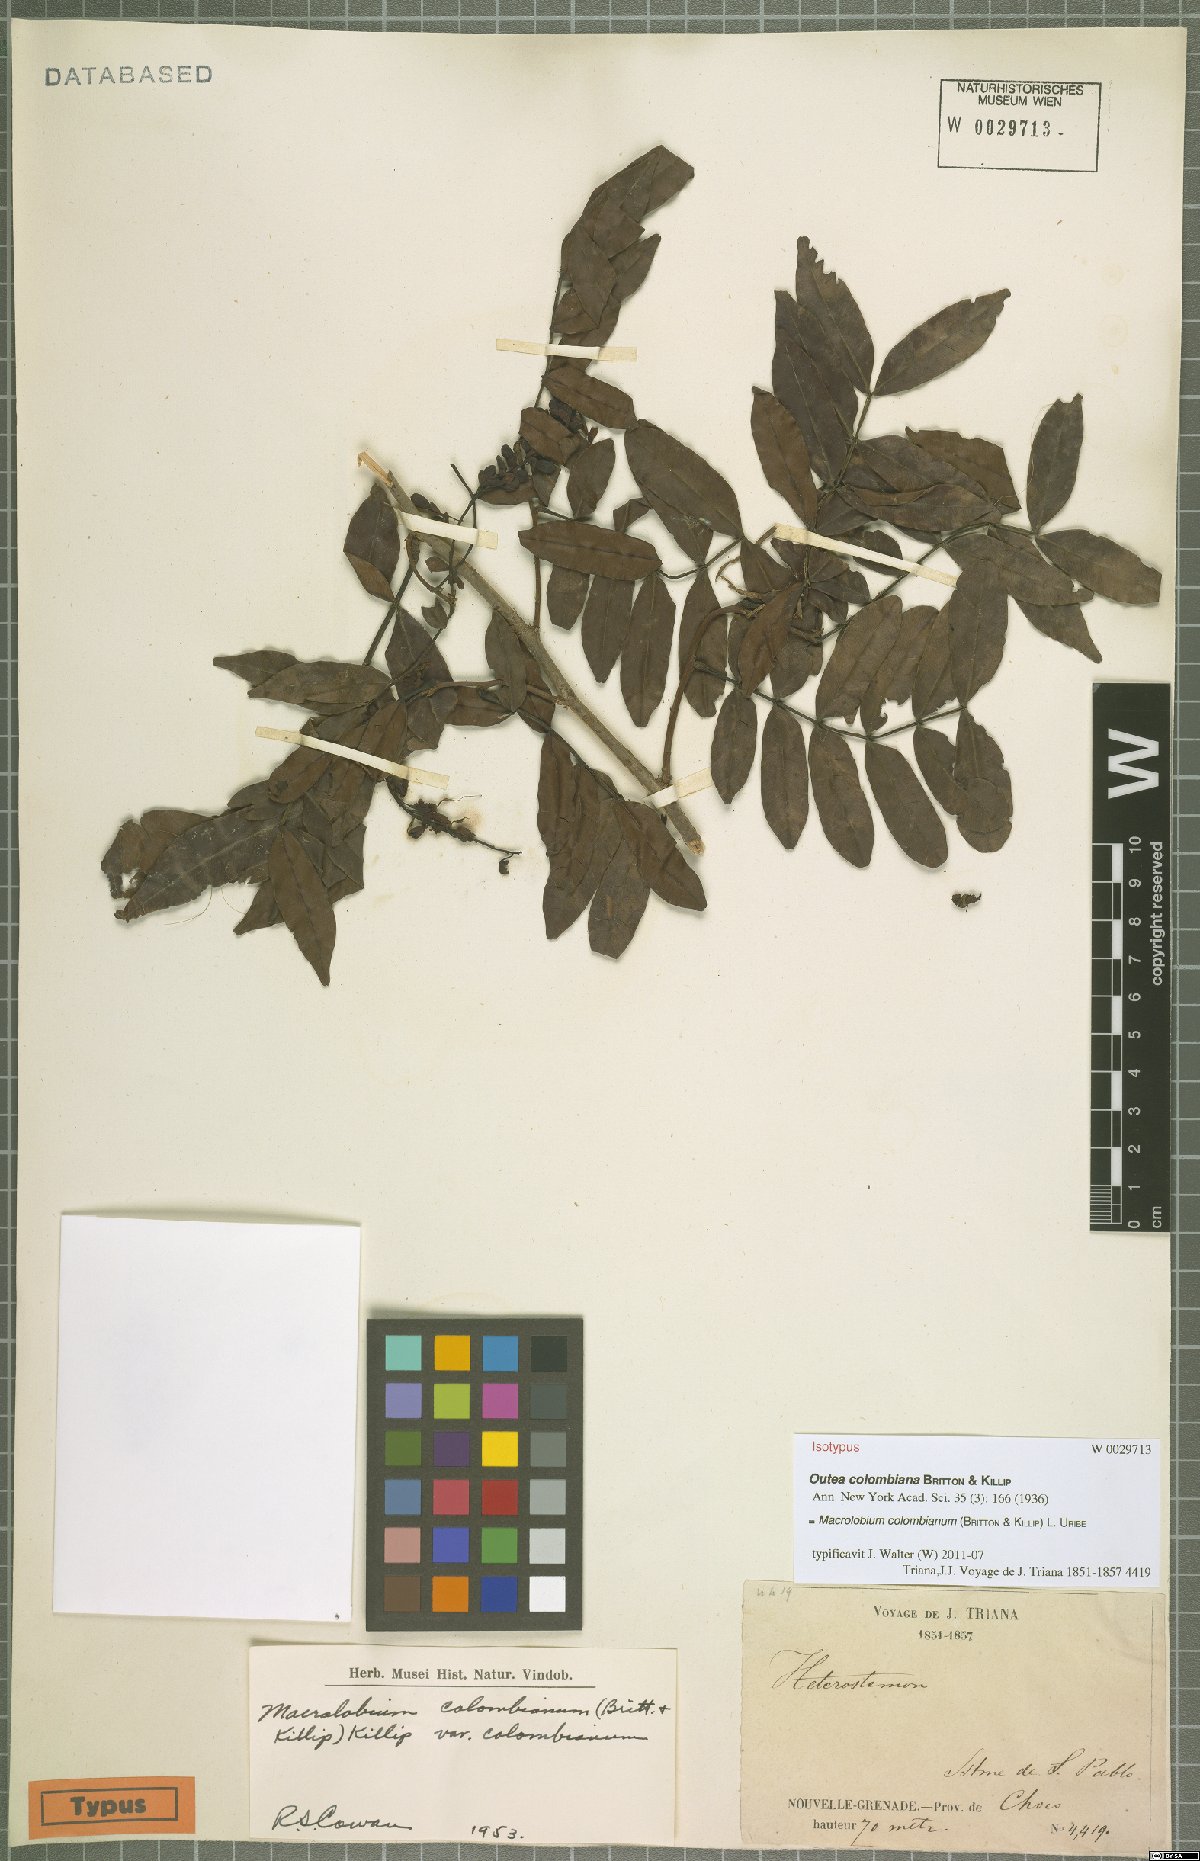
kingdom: Plantae
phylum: Tracheophyta
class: Magnoliopsida
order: Fabales
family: Fabaceae
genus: Macrolobium
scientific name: Macrolobium colombianum
